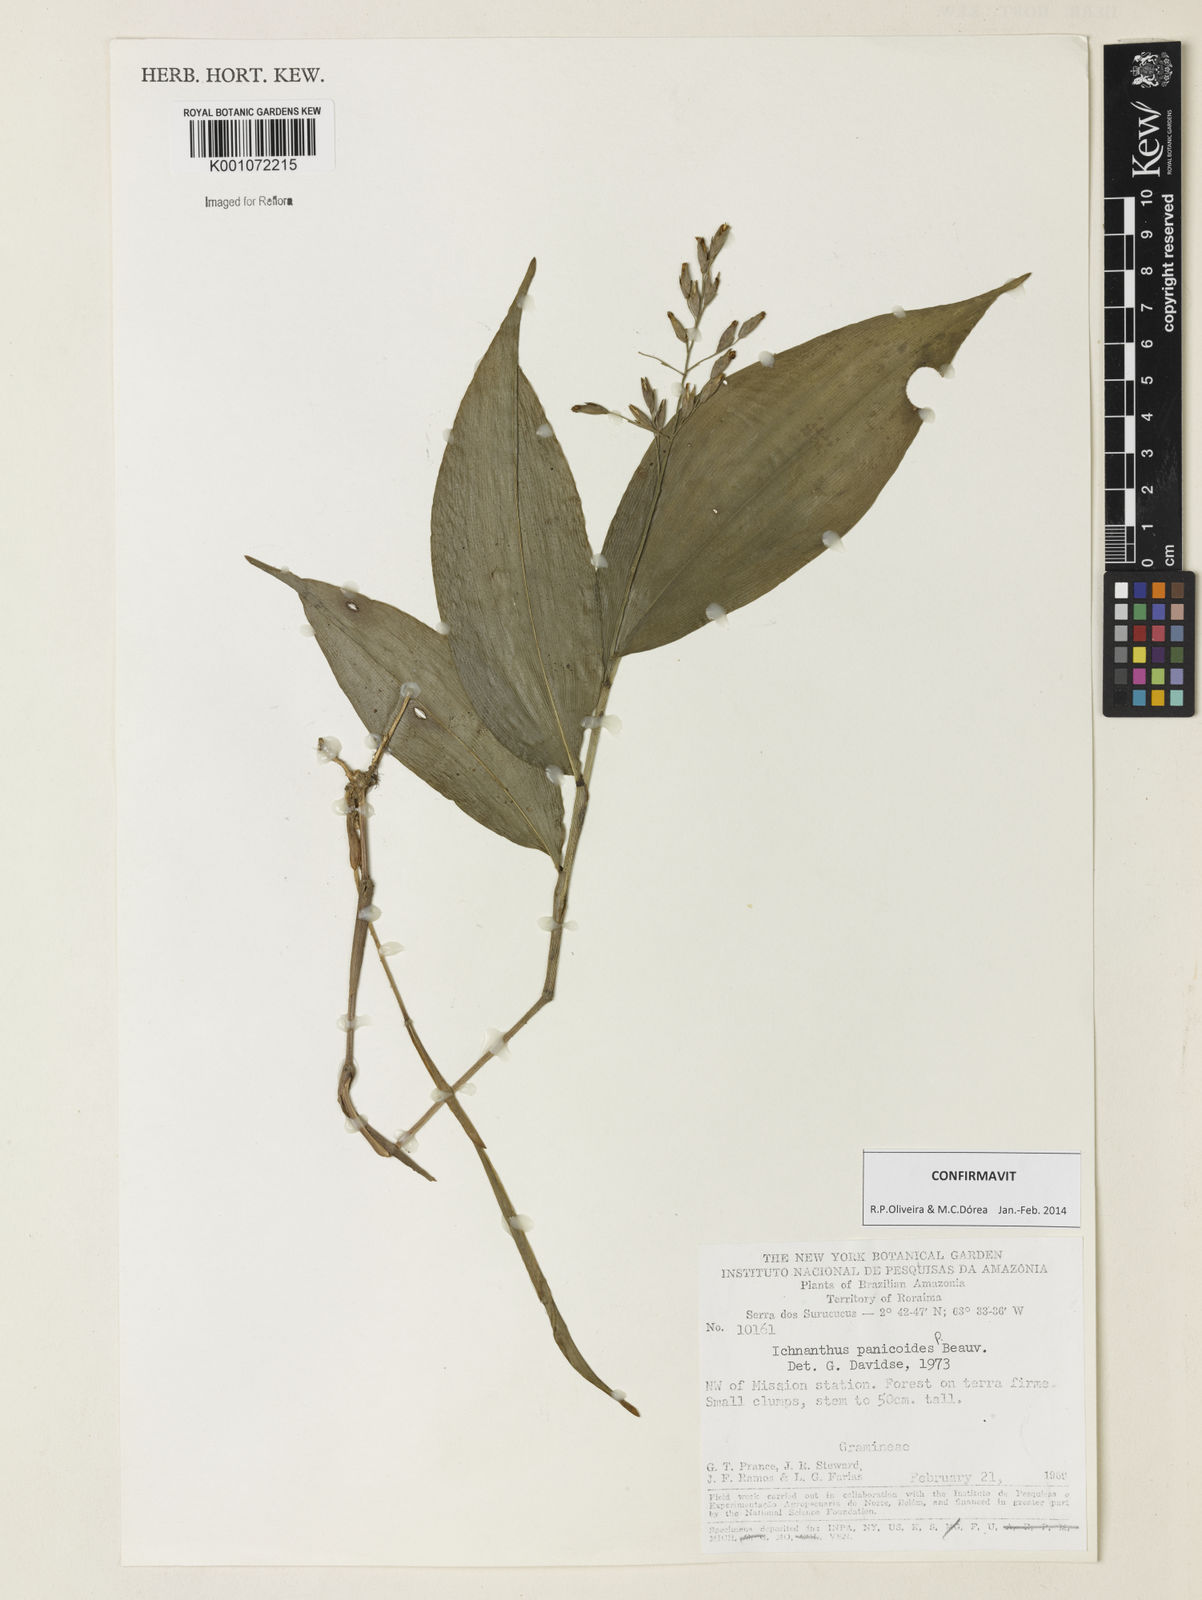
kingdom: Plantae
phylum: Tracheophyta
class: Liliopsida
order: Poales
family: Poaceae
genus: Ichnanthus
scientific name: Ichnanthus panicoides
